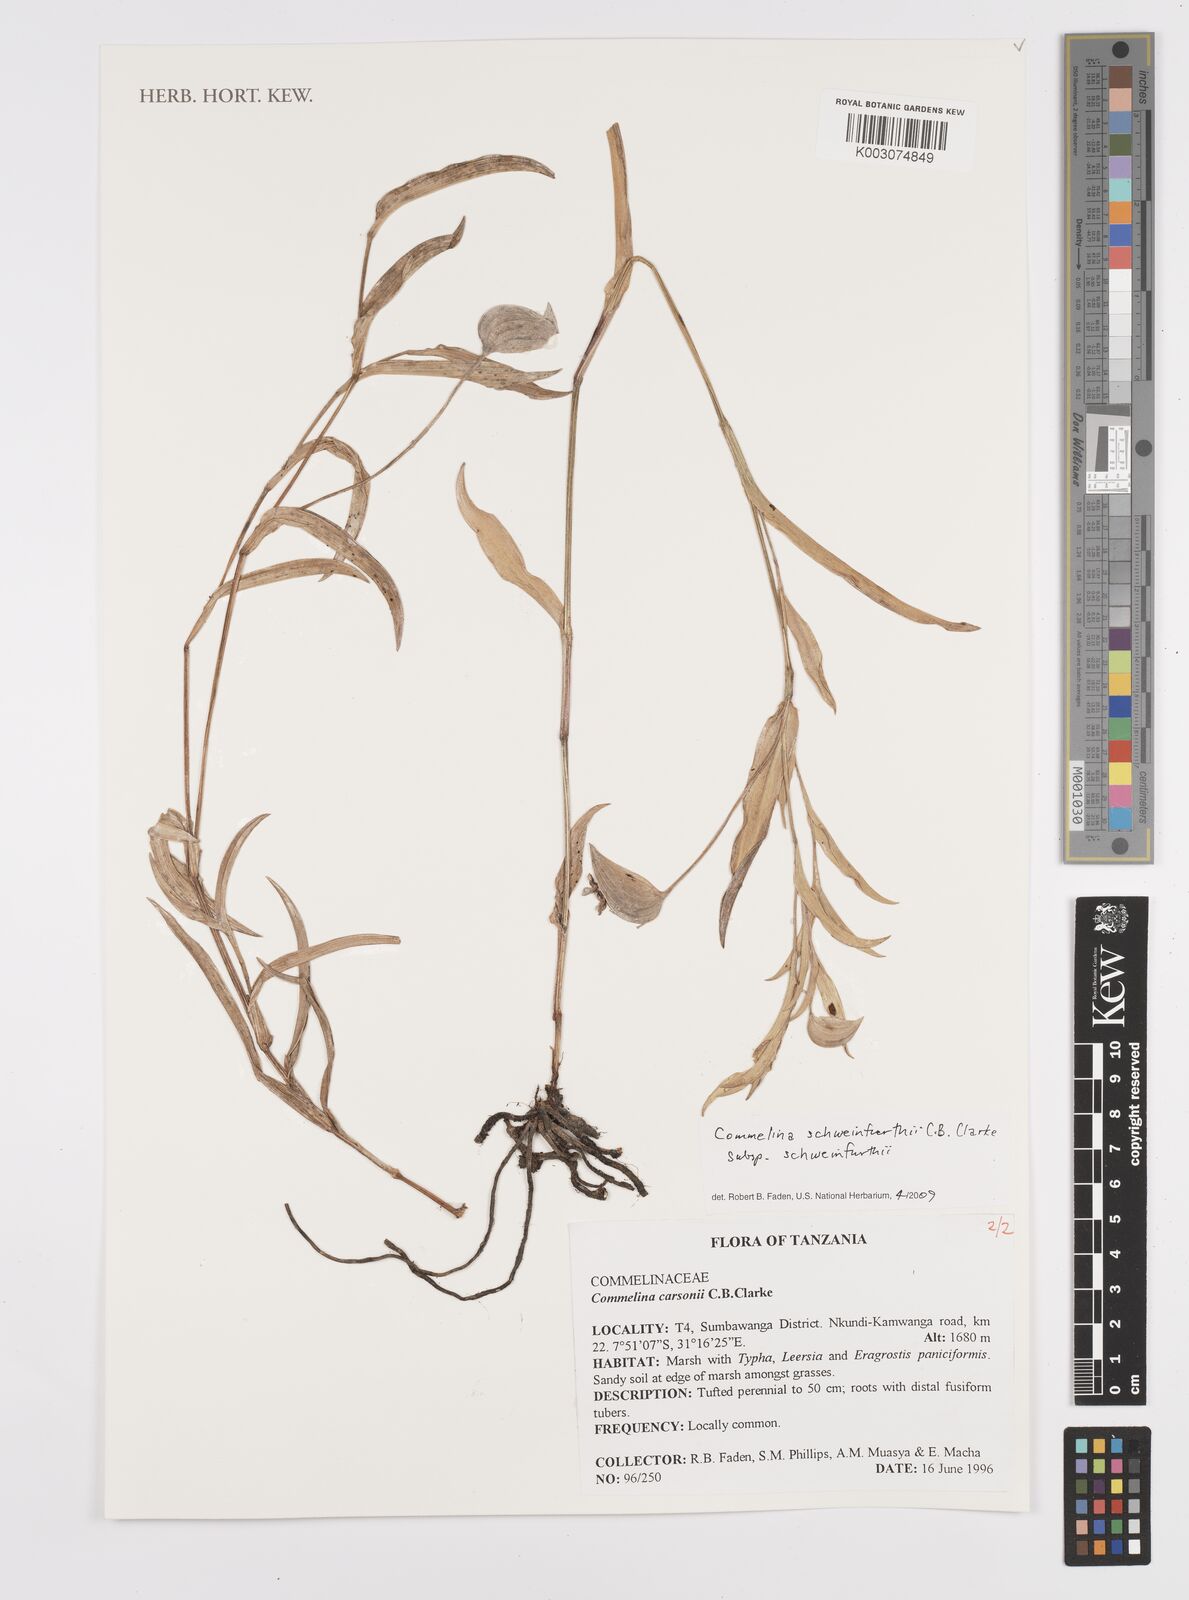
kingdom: Plantae
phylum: Tracheophyta
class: Liliopsida
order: Commelinales
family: Commelinaceae
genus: Commelina
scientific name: Commelina schweinfurthii
